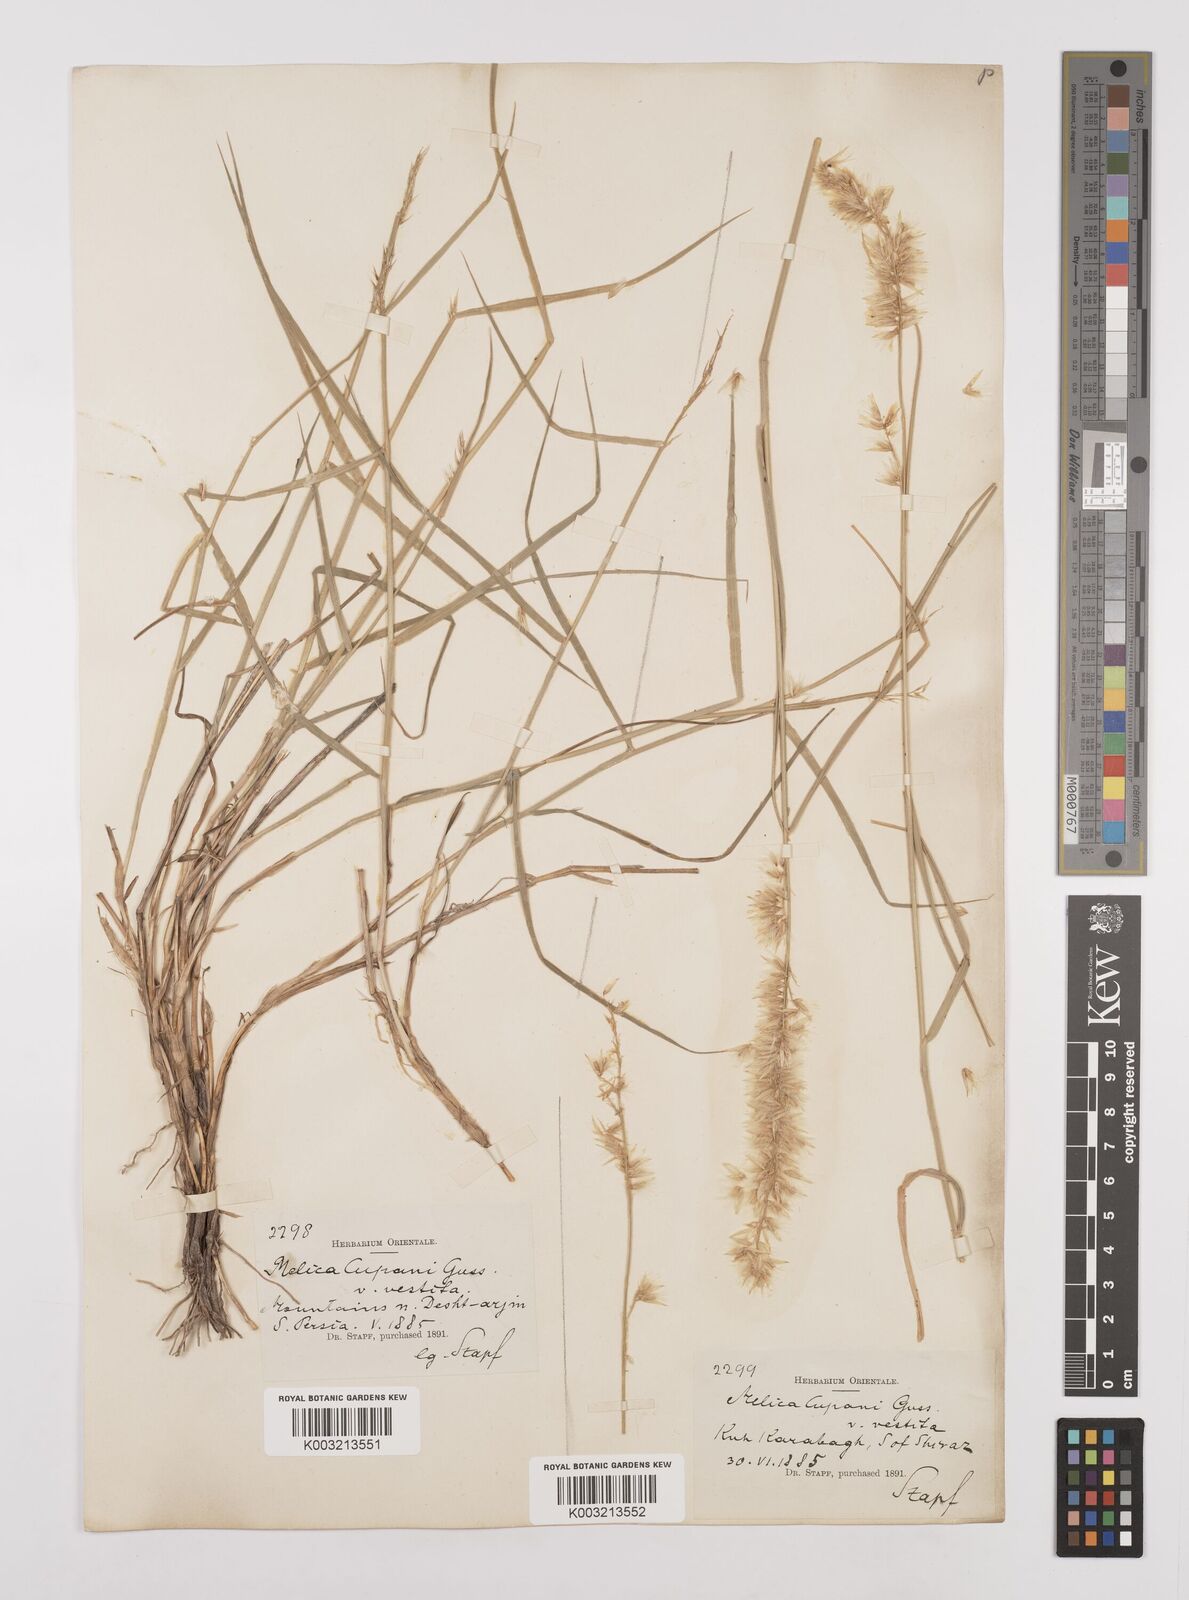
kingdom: Plantae
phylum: Tracheophyta
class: Liliopsida
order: Poales
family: Poaceae
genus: Melica
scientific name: Melica persica
